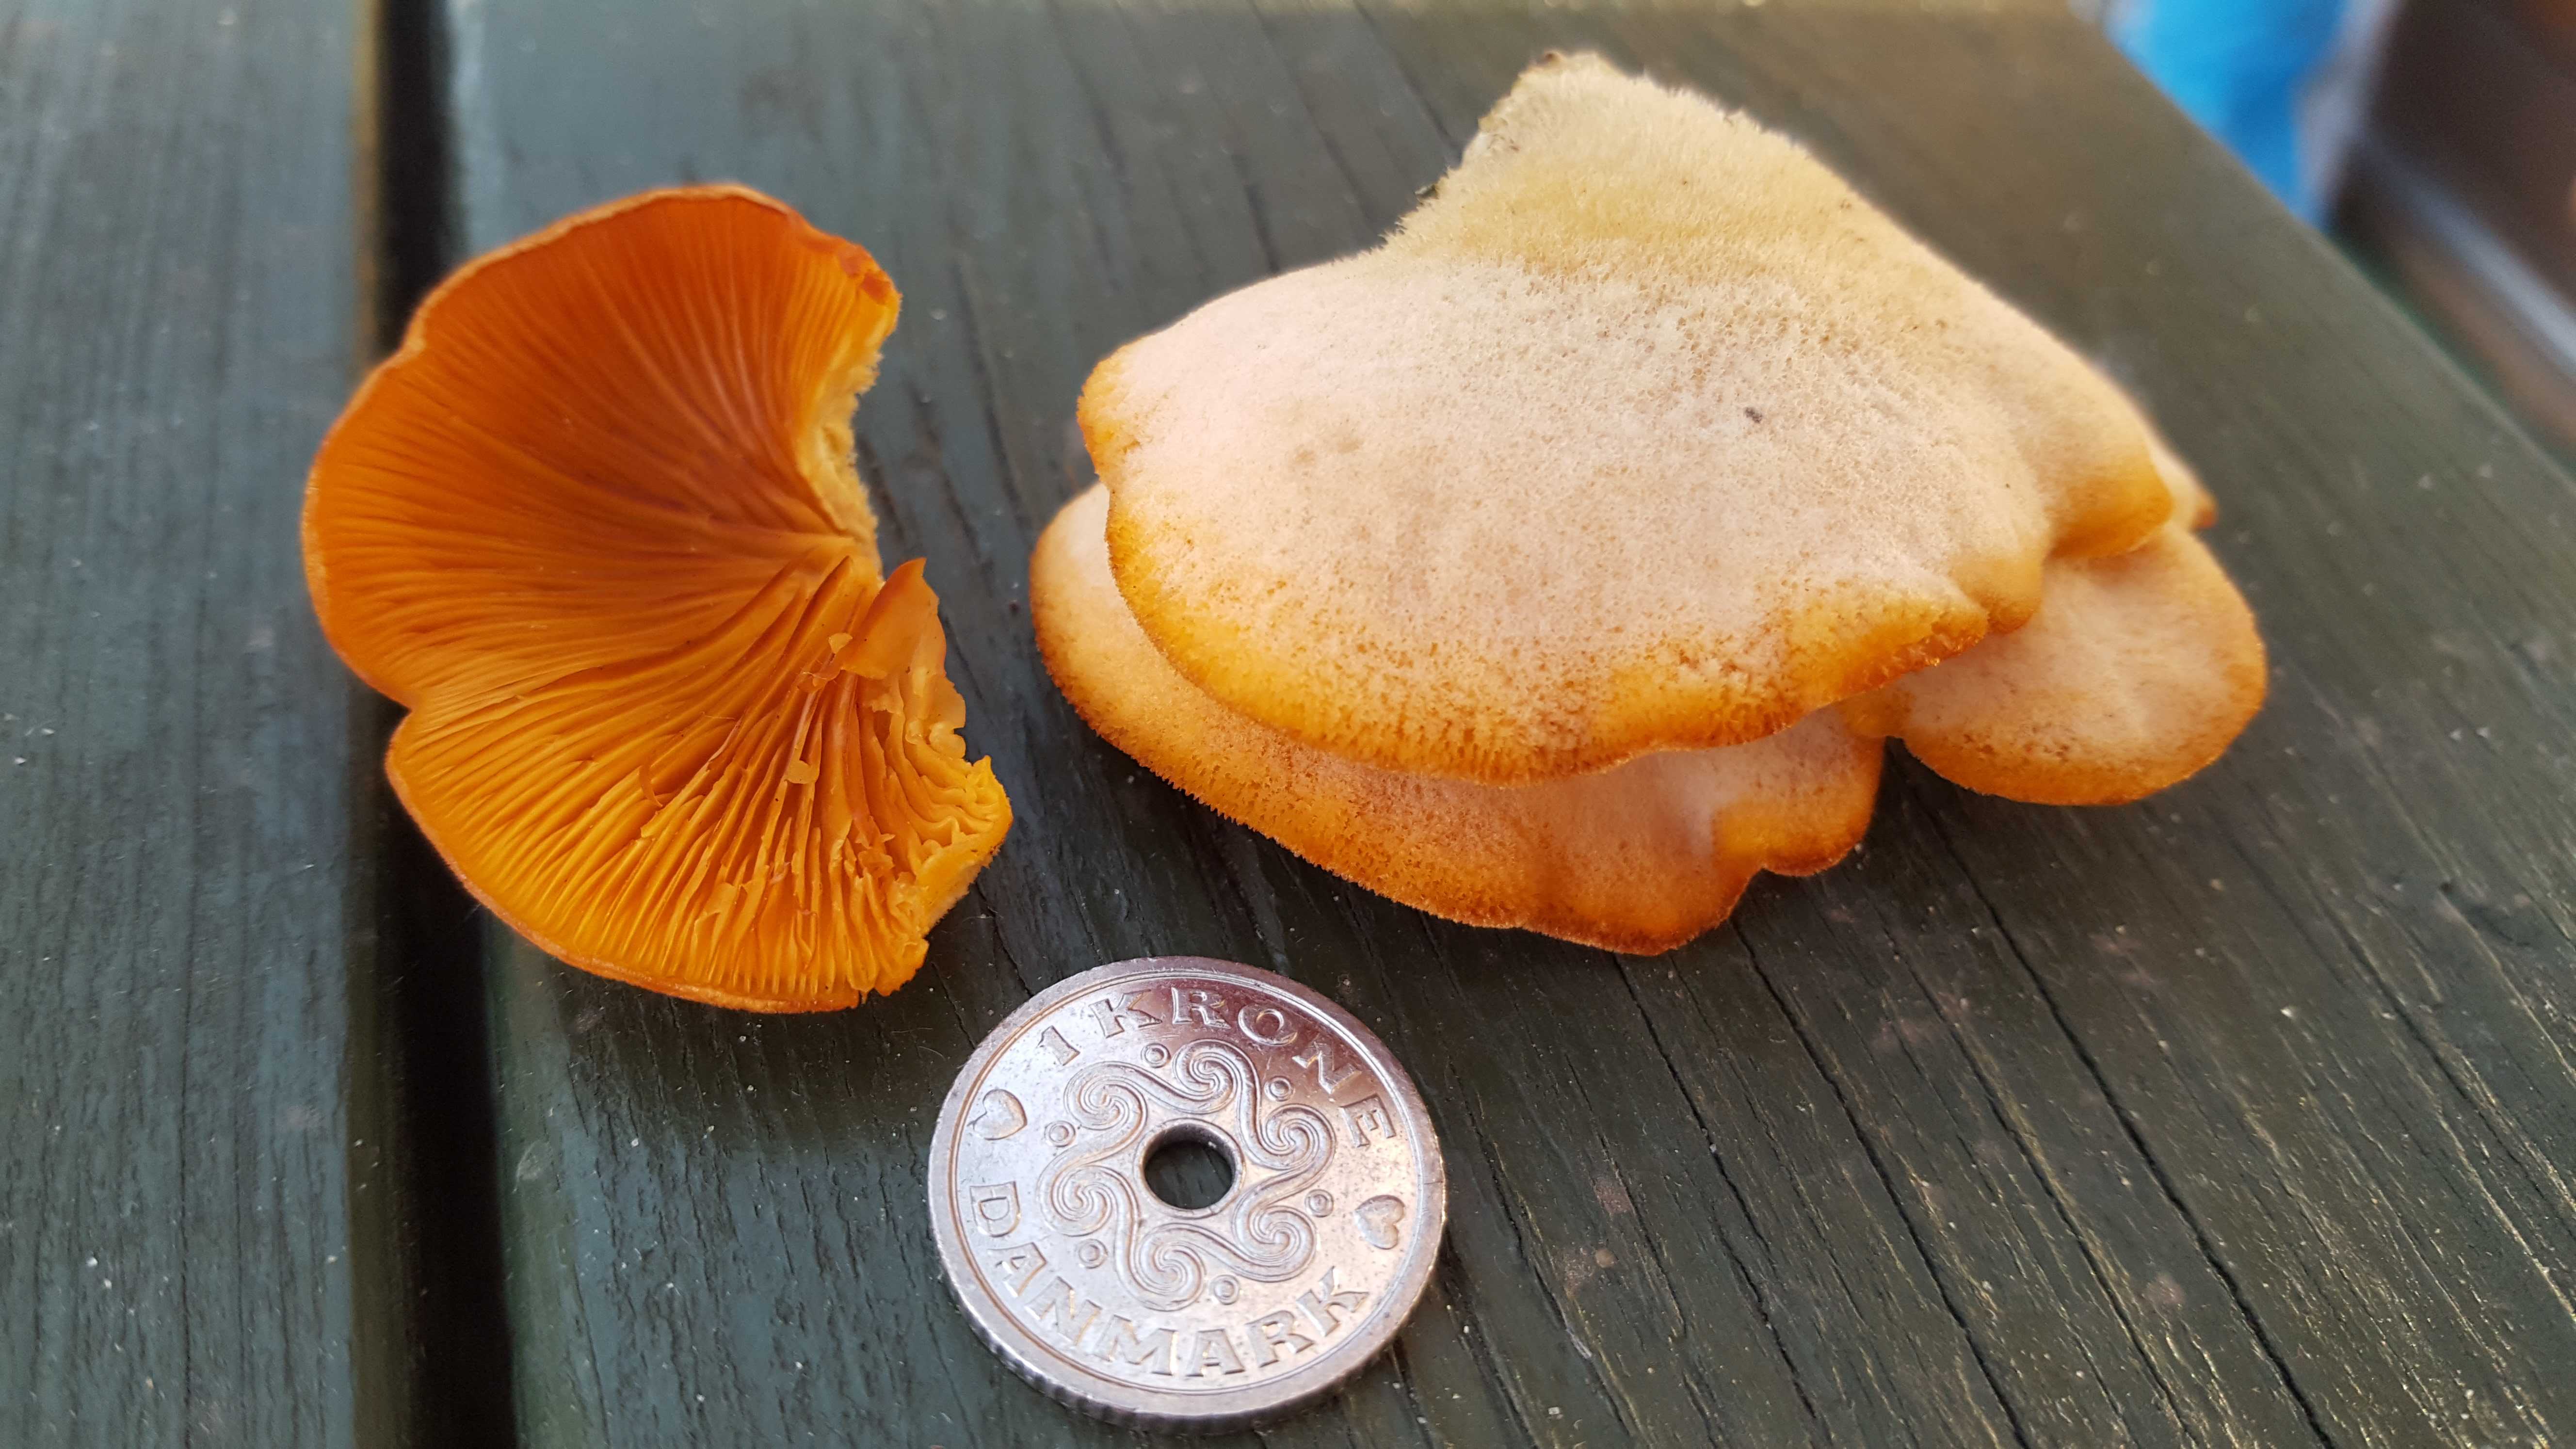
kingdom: Fungi
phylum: Basidiomycota
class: Agaricomycetes
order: Agaricales
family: Phyllotopsidaceae
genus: Phyllotopsis
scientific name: Phyllotopsis nidulans
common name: okkerblad
